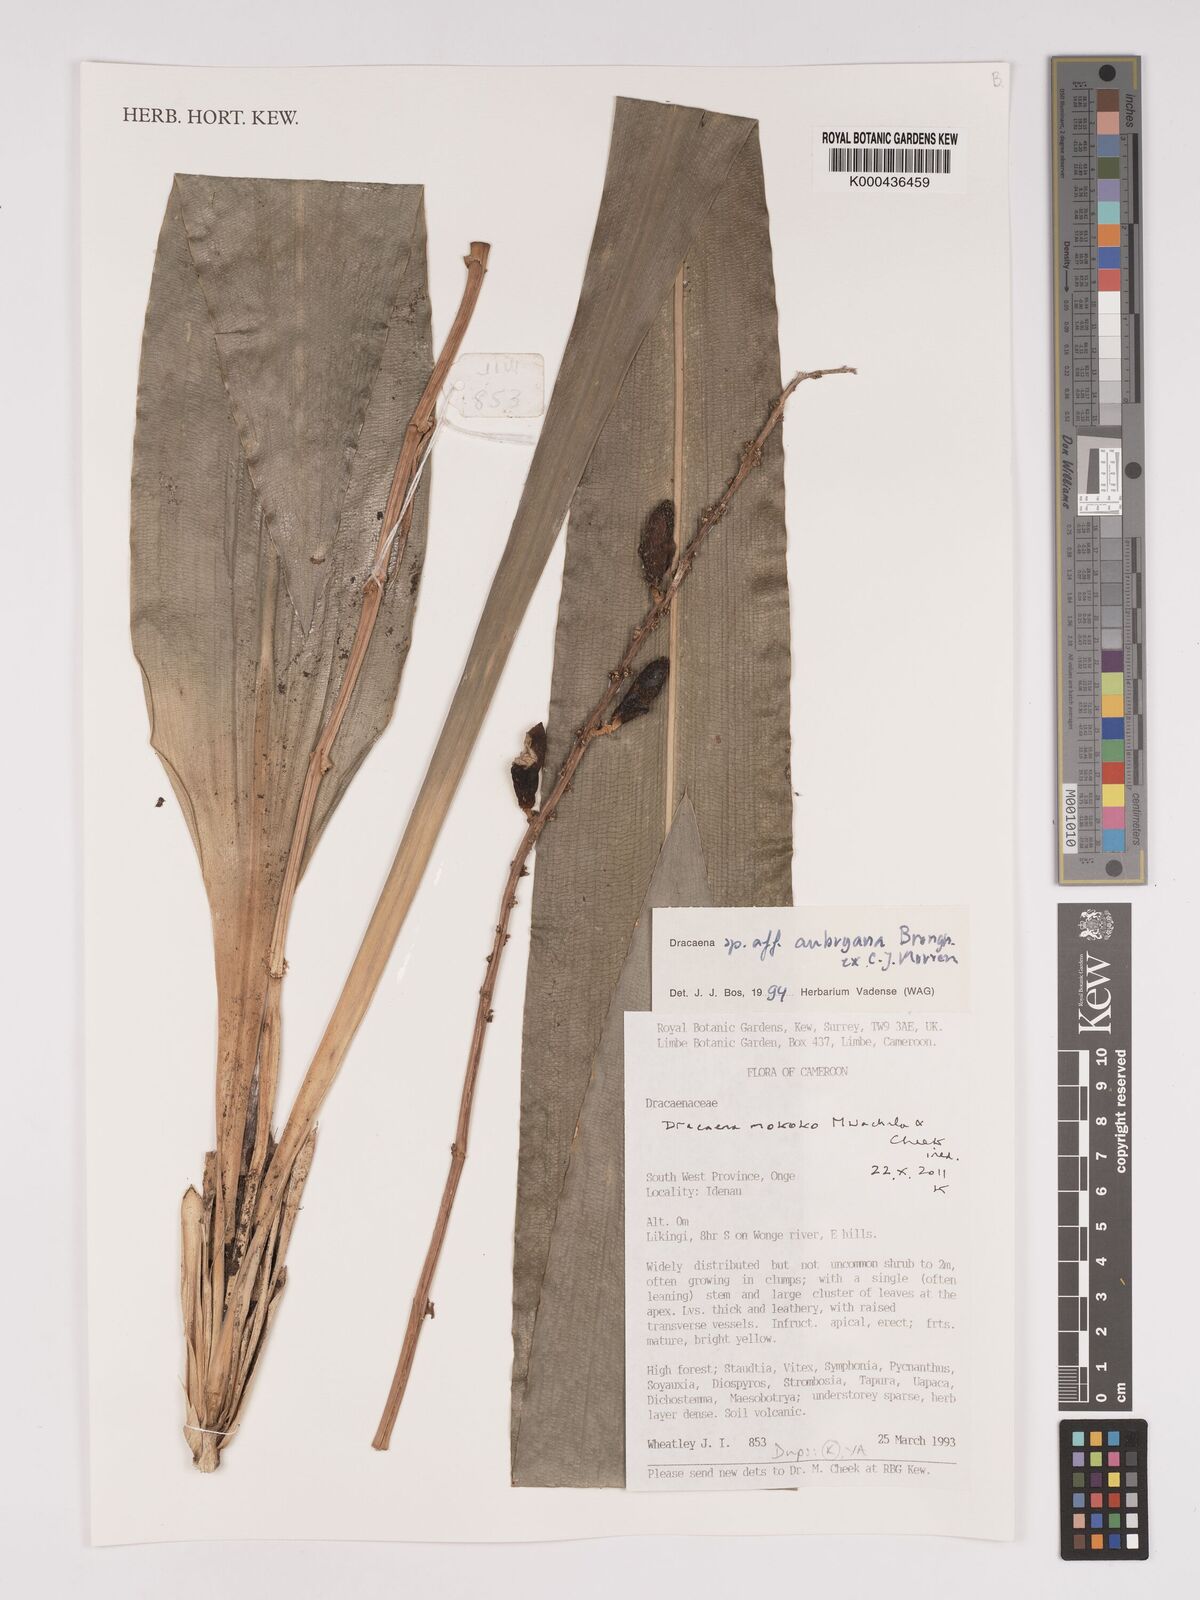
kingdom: Plantae
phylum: Tracheophyta
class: Liliopsida
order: Asparagales
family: Asparagaceae
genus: Dracaena
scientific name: Dracaena mokoko
